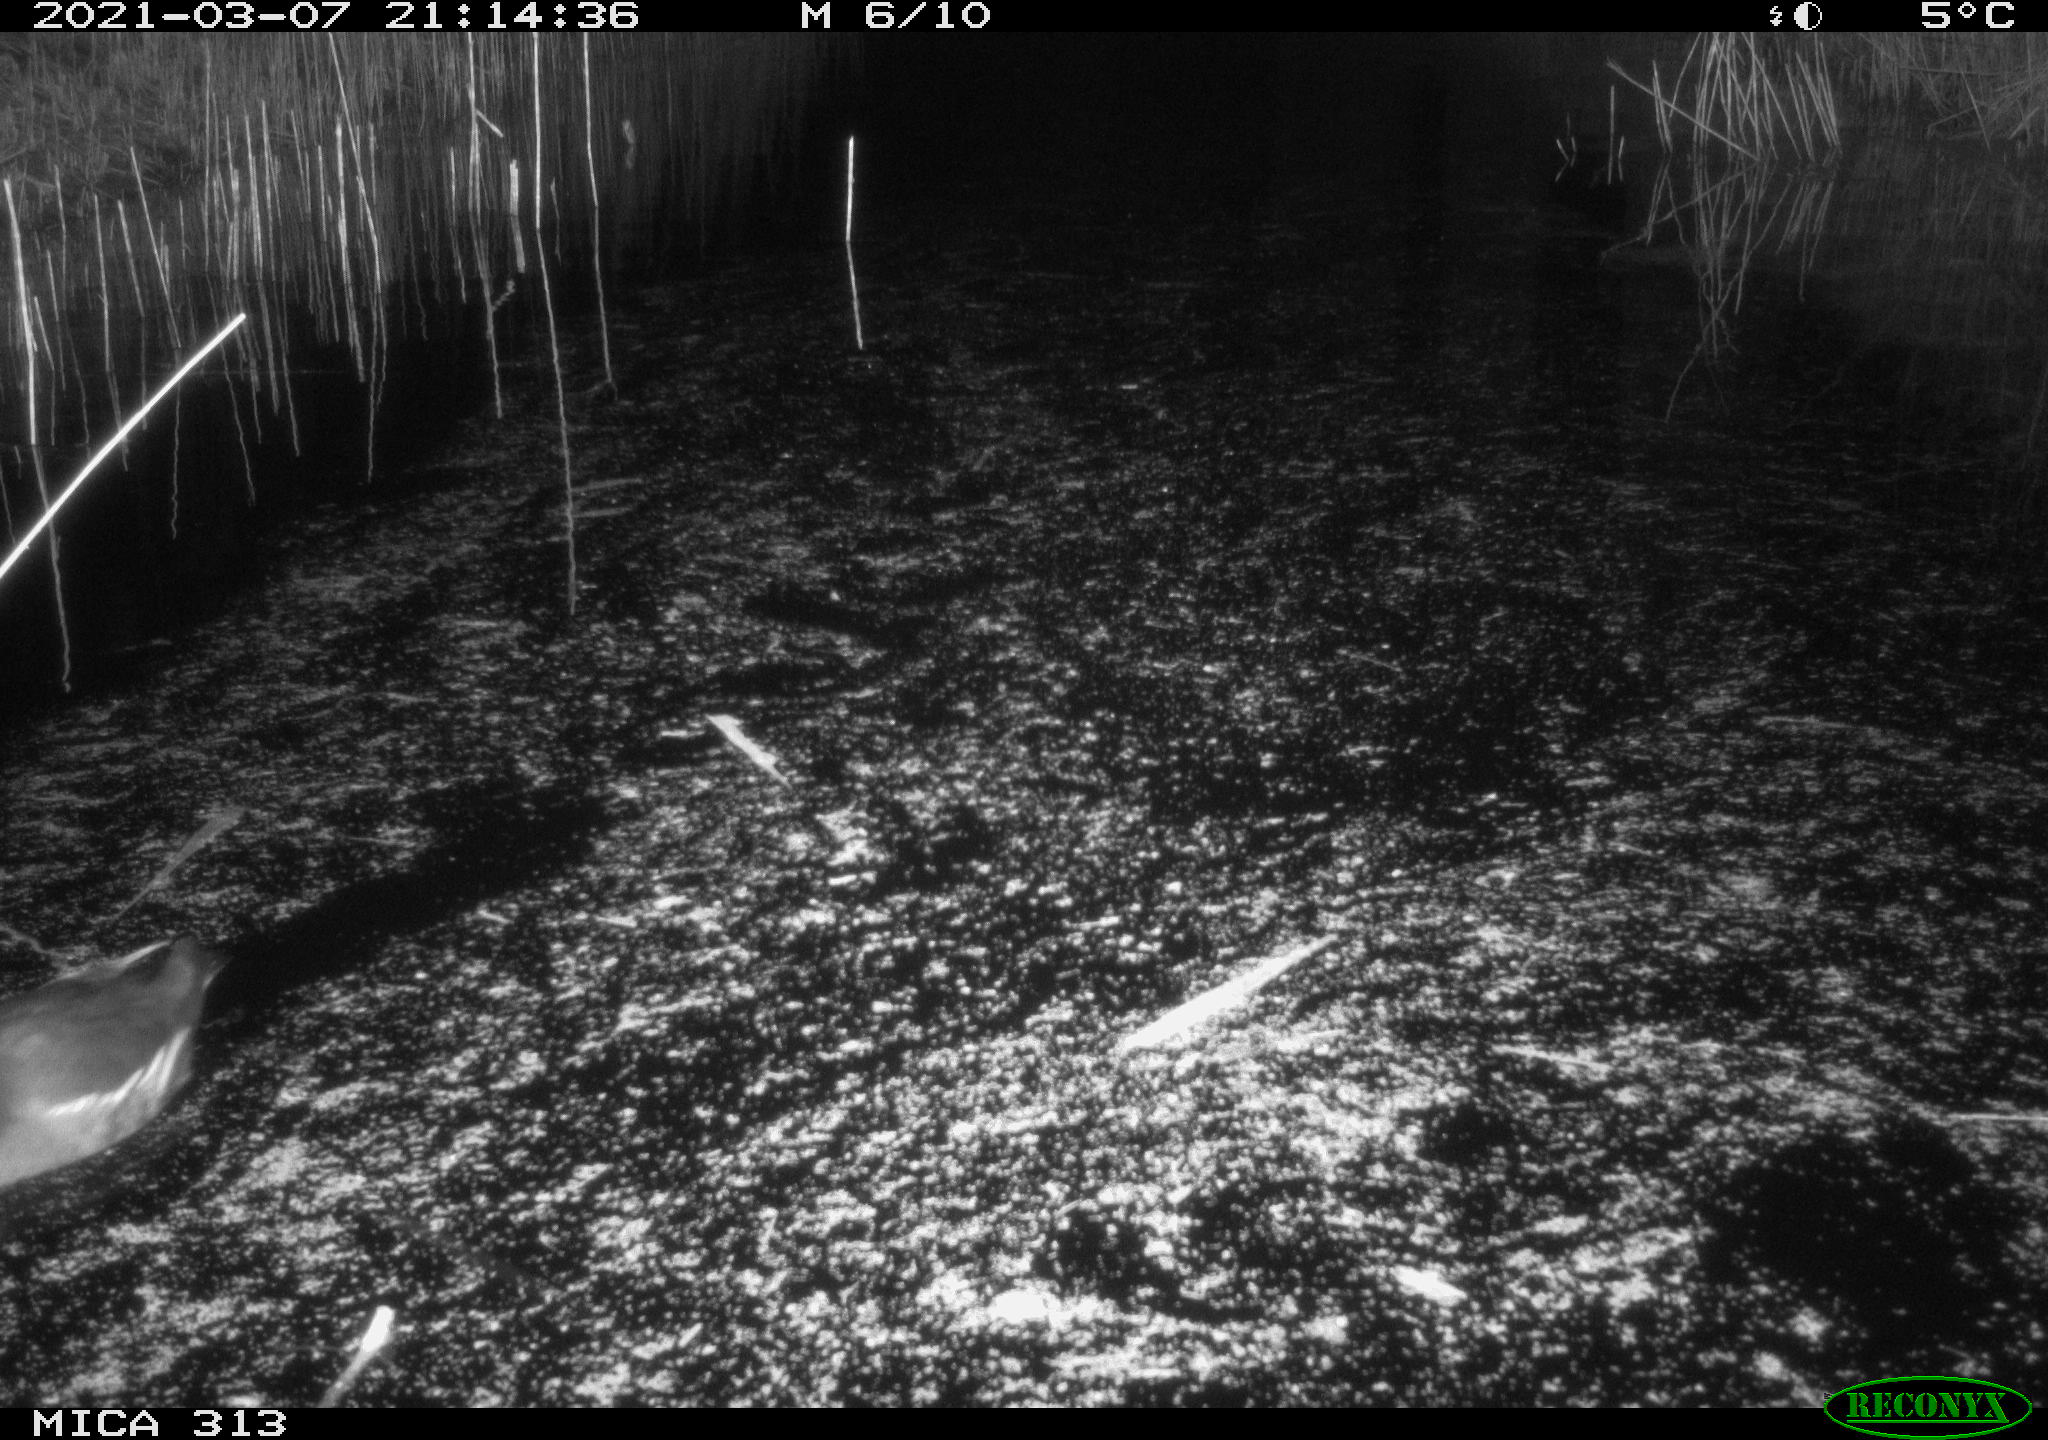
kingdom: Animalia
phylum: Chordata
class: Aves
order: Gruiformes
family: Rallidae
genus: Gallinula
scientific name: Gallinula chloropus
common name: Common moorhen
